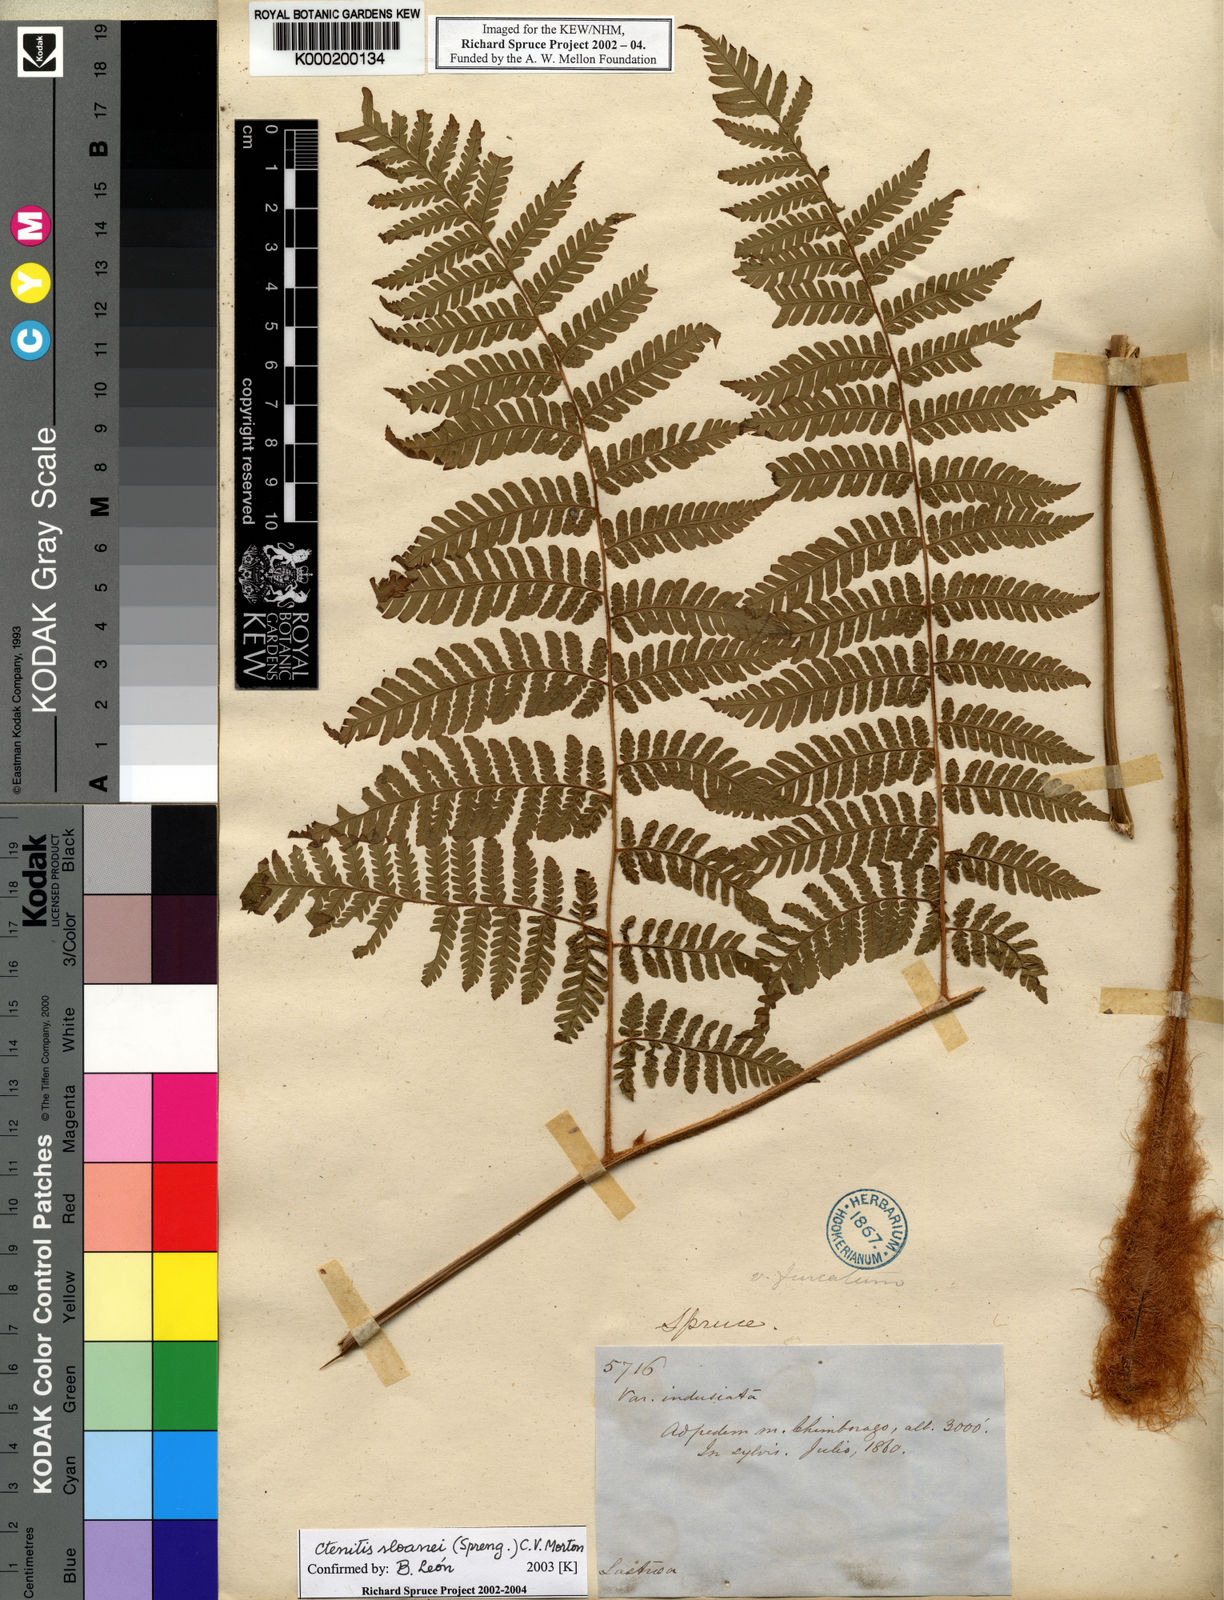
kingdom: Plantae
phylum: Tracheophyta
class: Polypodiopsida
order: Polypodiales
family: Dryopteridaceae
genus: Ctenitis
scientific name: Ctenitis sloanei
